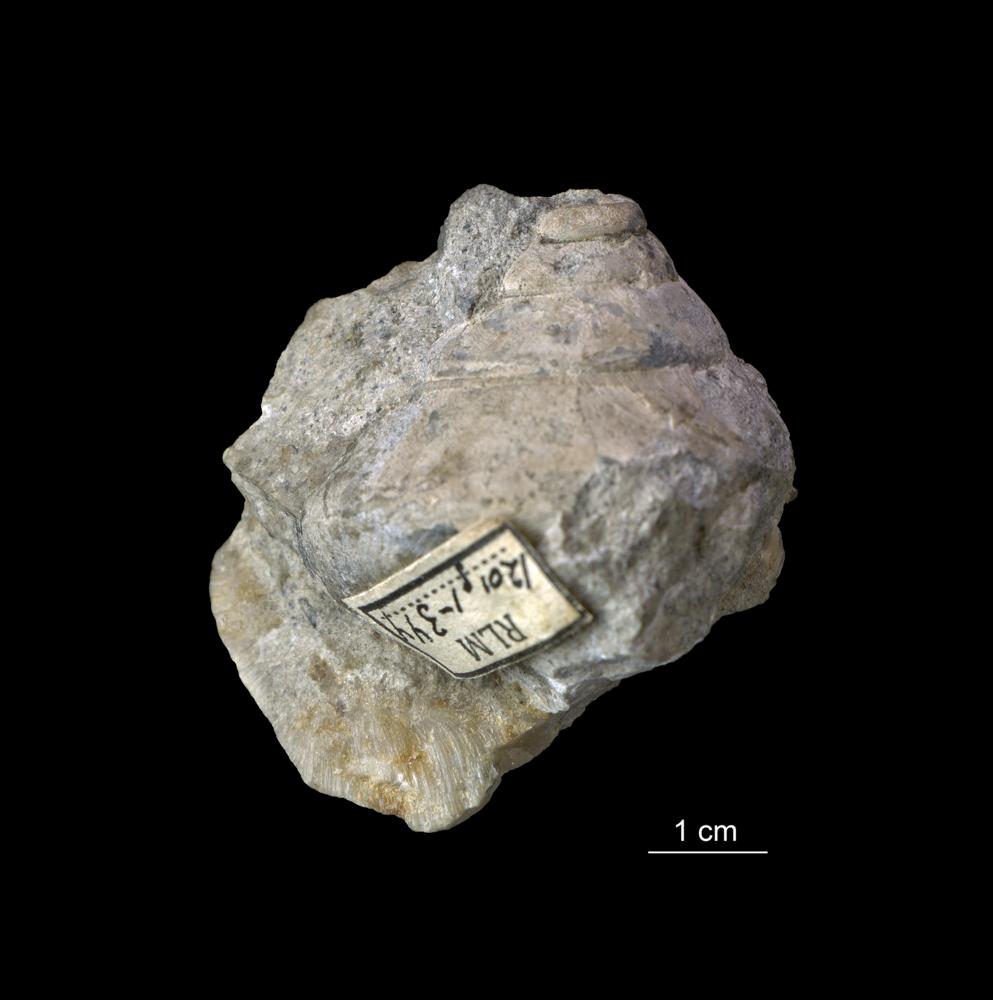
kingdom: Animalia
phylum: Mollusca
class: Gastropoda
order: Pleurotomariida
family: Phanerotrematidae
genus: Brachytomaria
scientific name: Brachytomaria nodulosa
